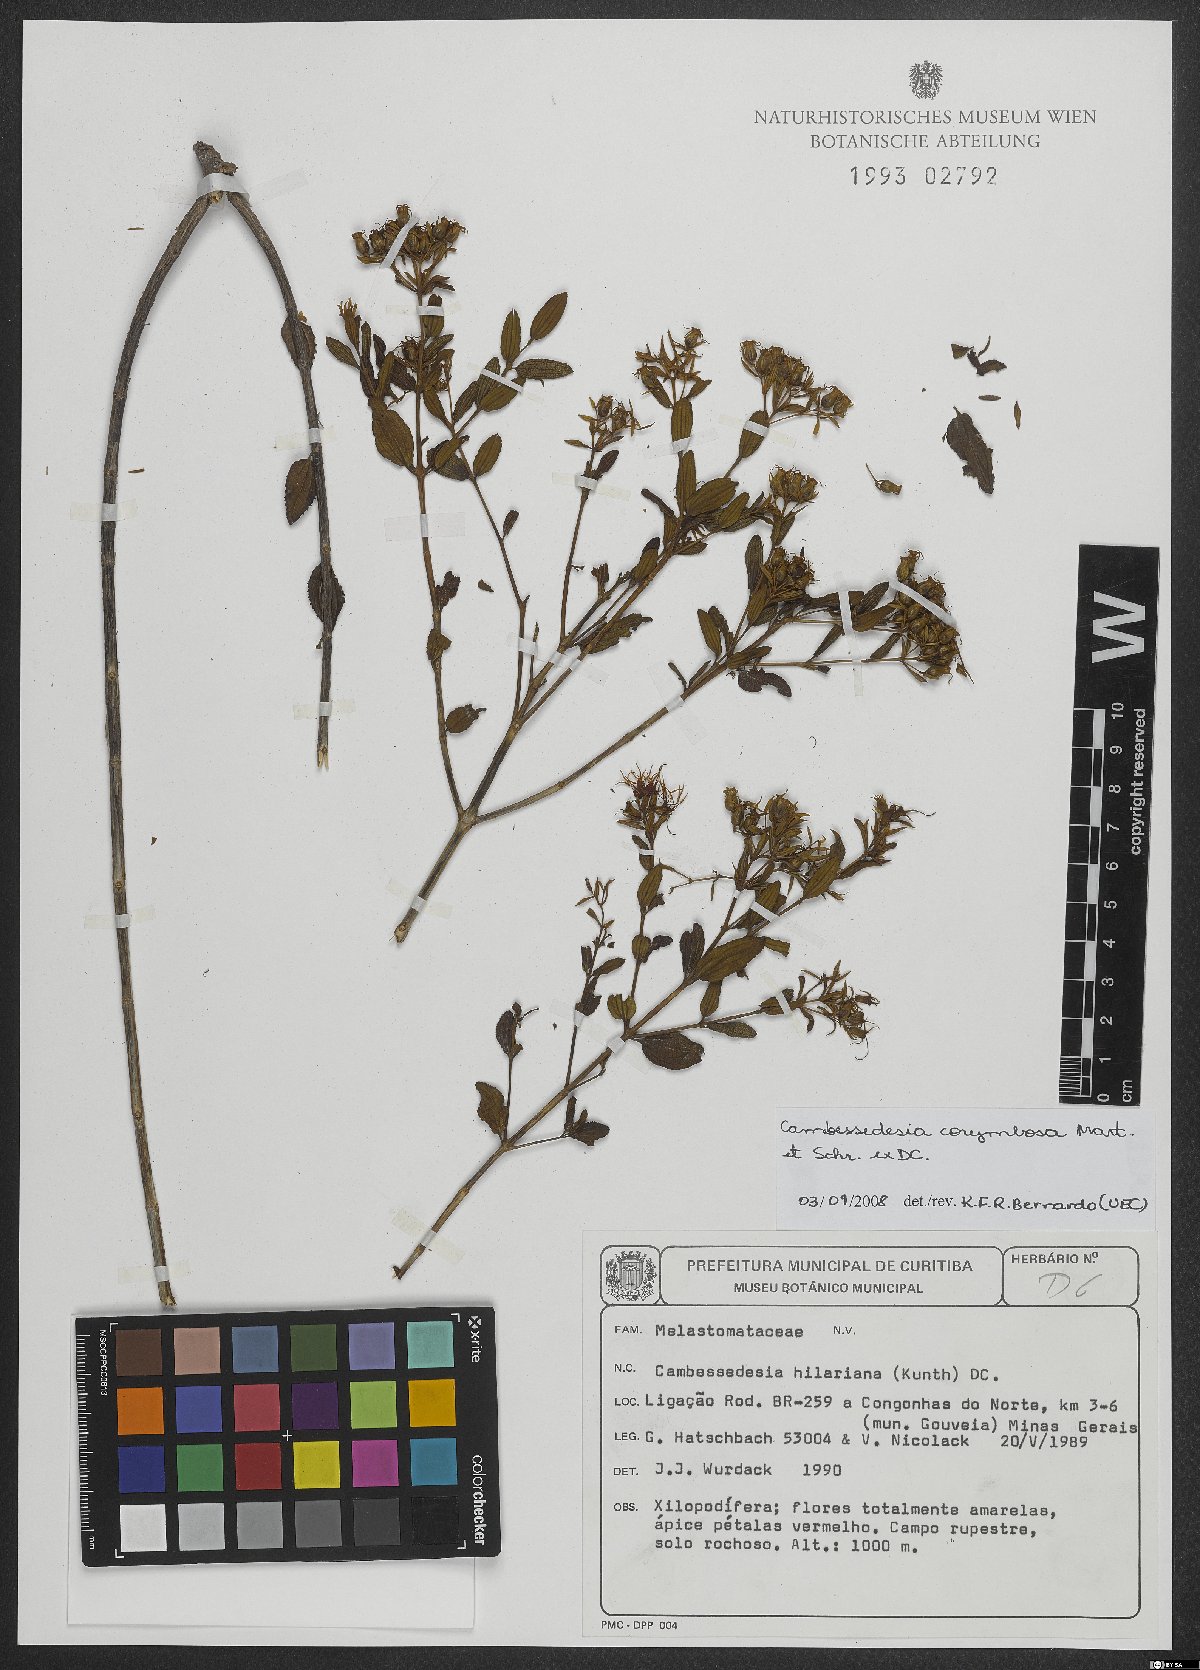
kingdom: Plantae
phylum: Tracheophyta
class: Magnoliopsida
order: Myrtales
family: Melastomataceae
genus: Cambessedesia
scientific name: Cambessedesia corymbosa
